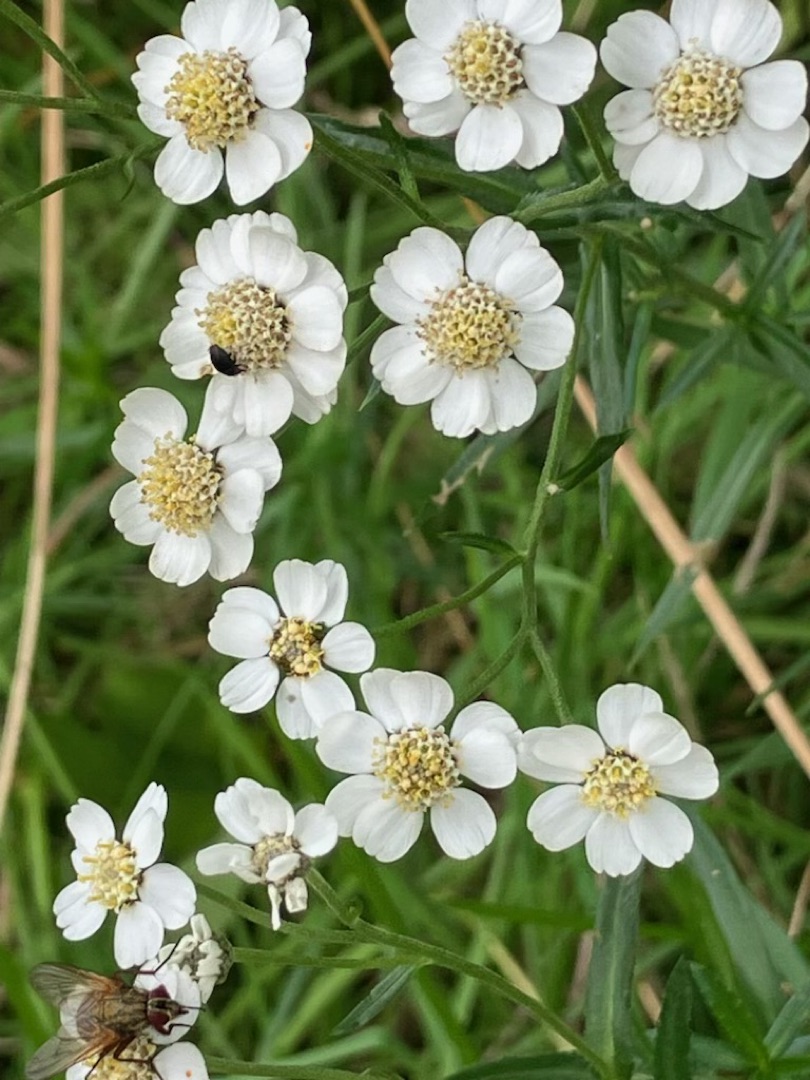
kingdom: Plantae
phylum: Tracheophyta
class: Magnoliopsida
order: Asterales
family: Asteraceae
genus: Achillea
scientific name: Achillea ptarmica
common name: Nyse-røllike
